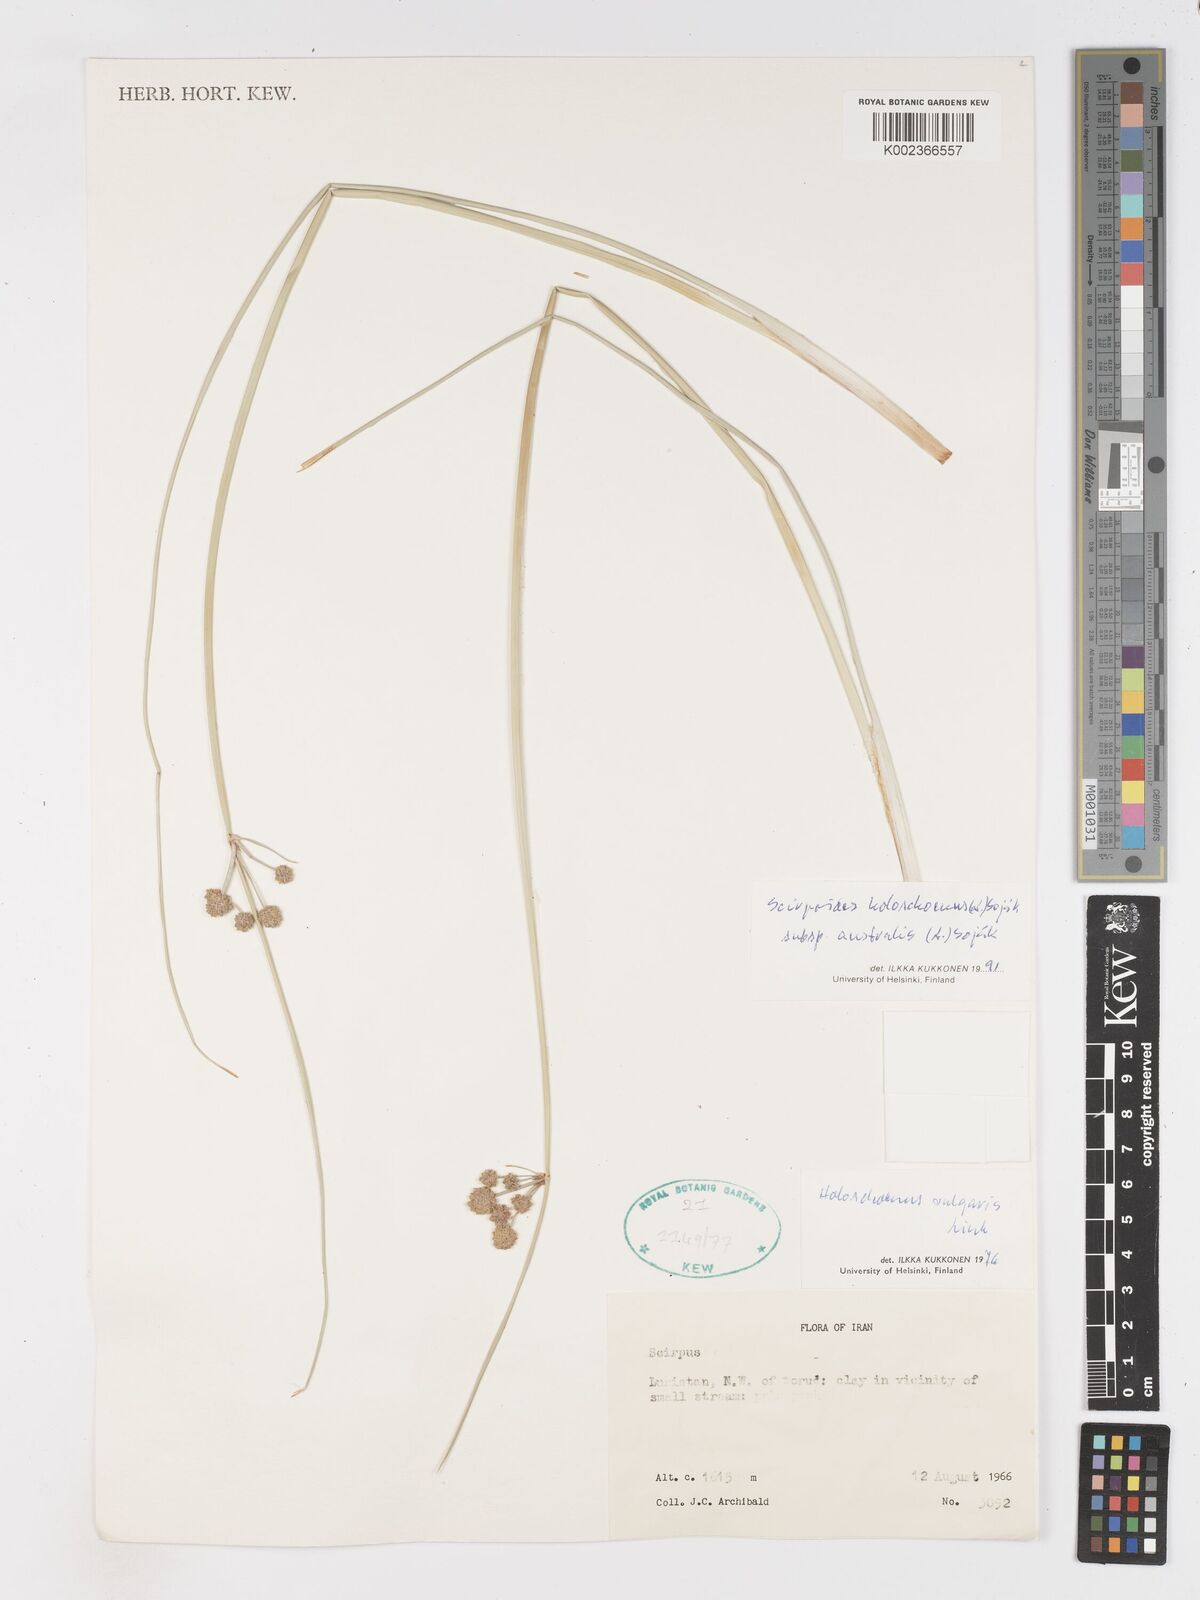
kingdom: Plantae
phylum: Tracheophyta
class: Liliopsida
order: Poales
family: Cyperaceae
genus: Scirpoides
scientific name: Scirpoides holoschoenus
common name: Round-headed club-rush
